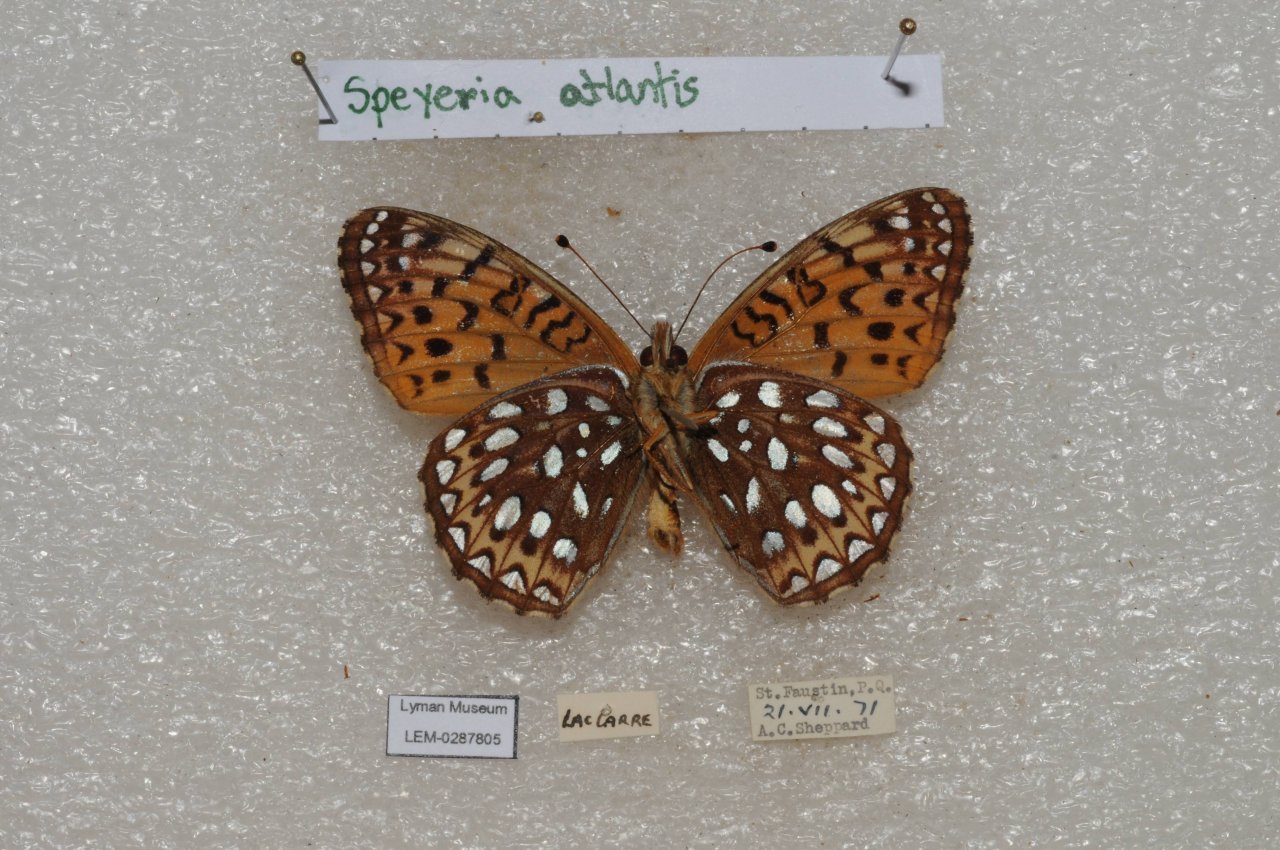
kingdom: Animalia
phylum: Arthropoda
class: Insecta
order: Lepidoptera
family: Nymphalidae
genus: Speyeria
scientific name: Speyeria atlantis
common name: Atlantis Fritillary
